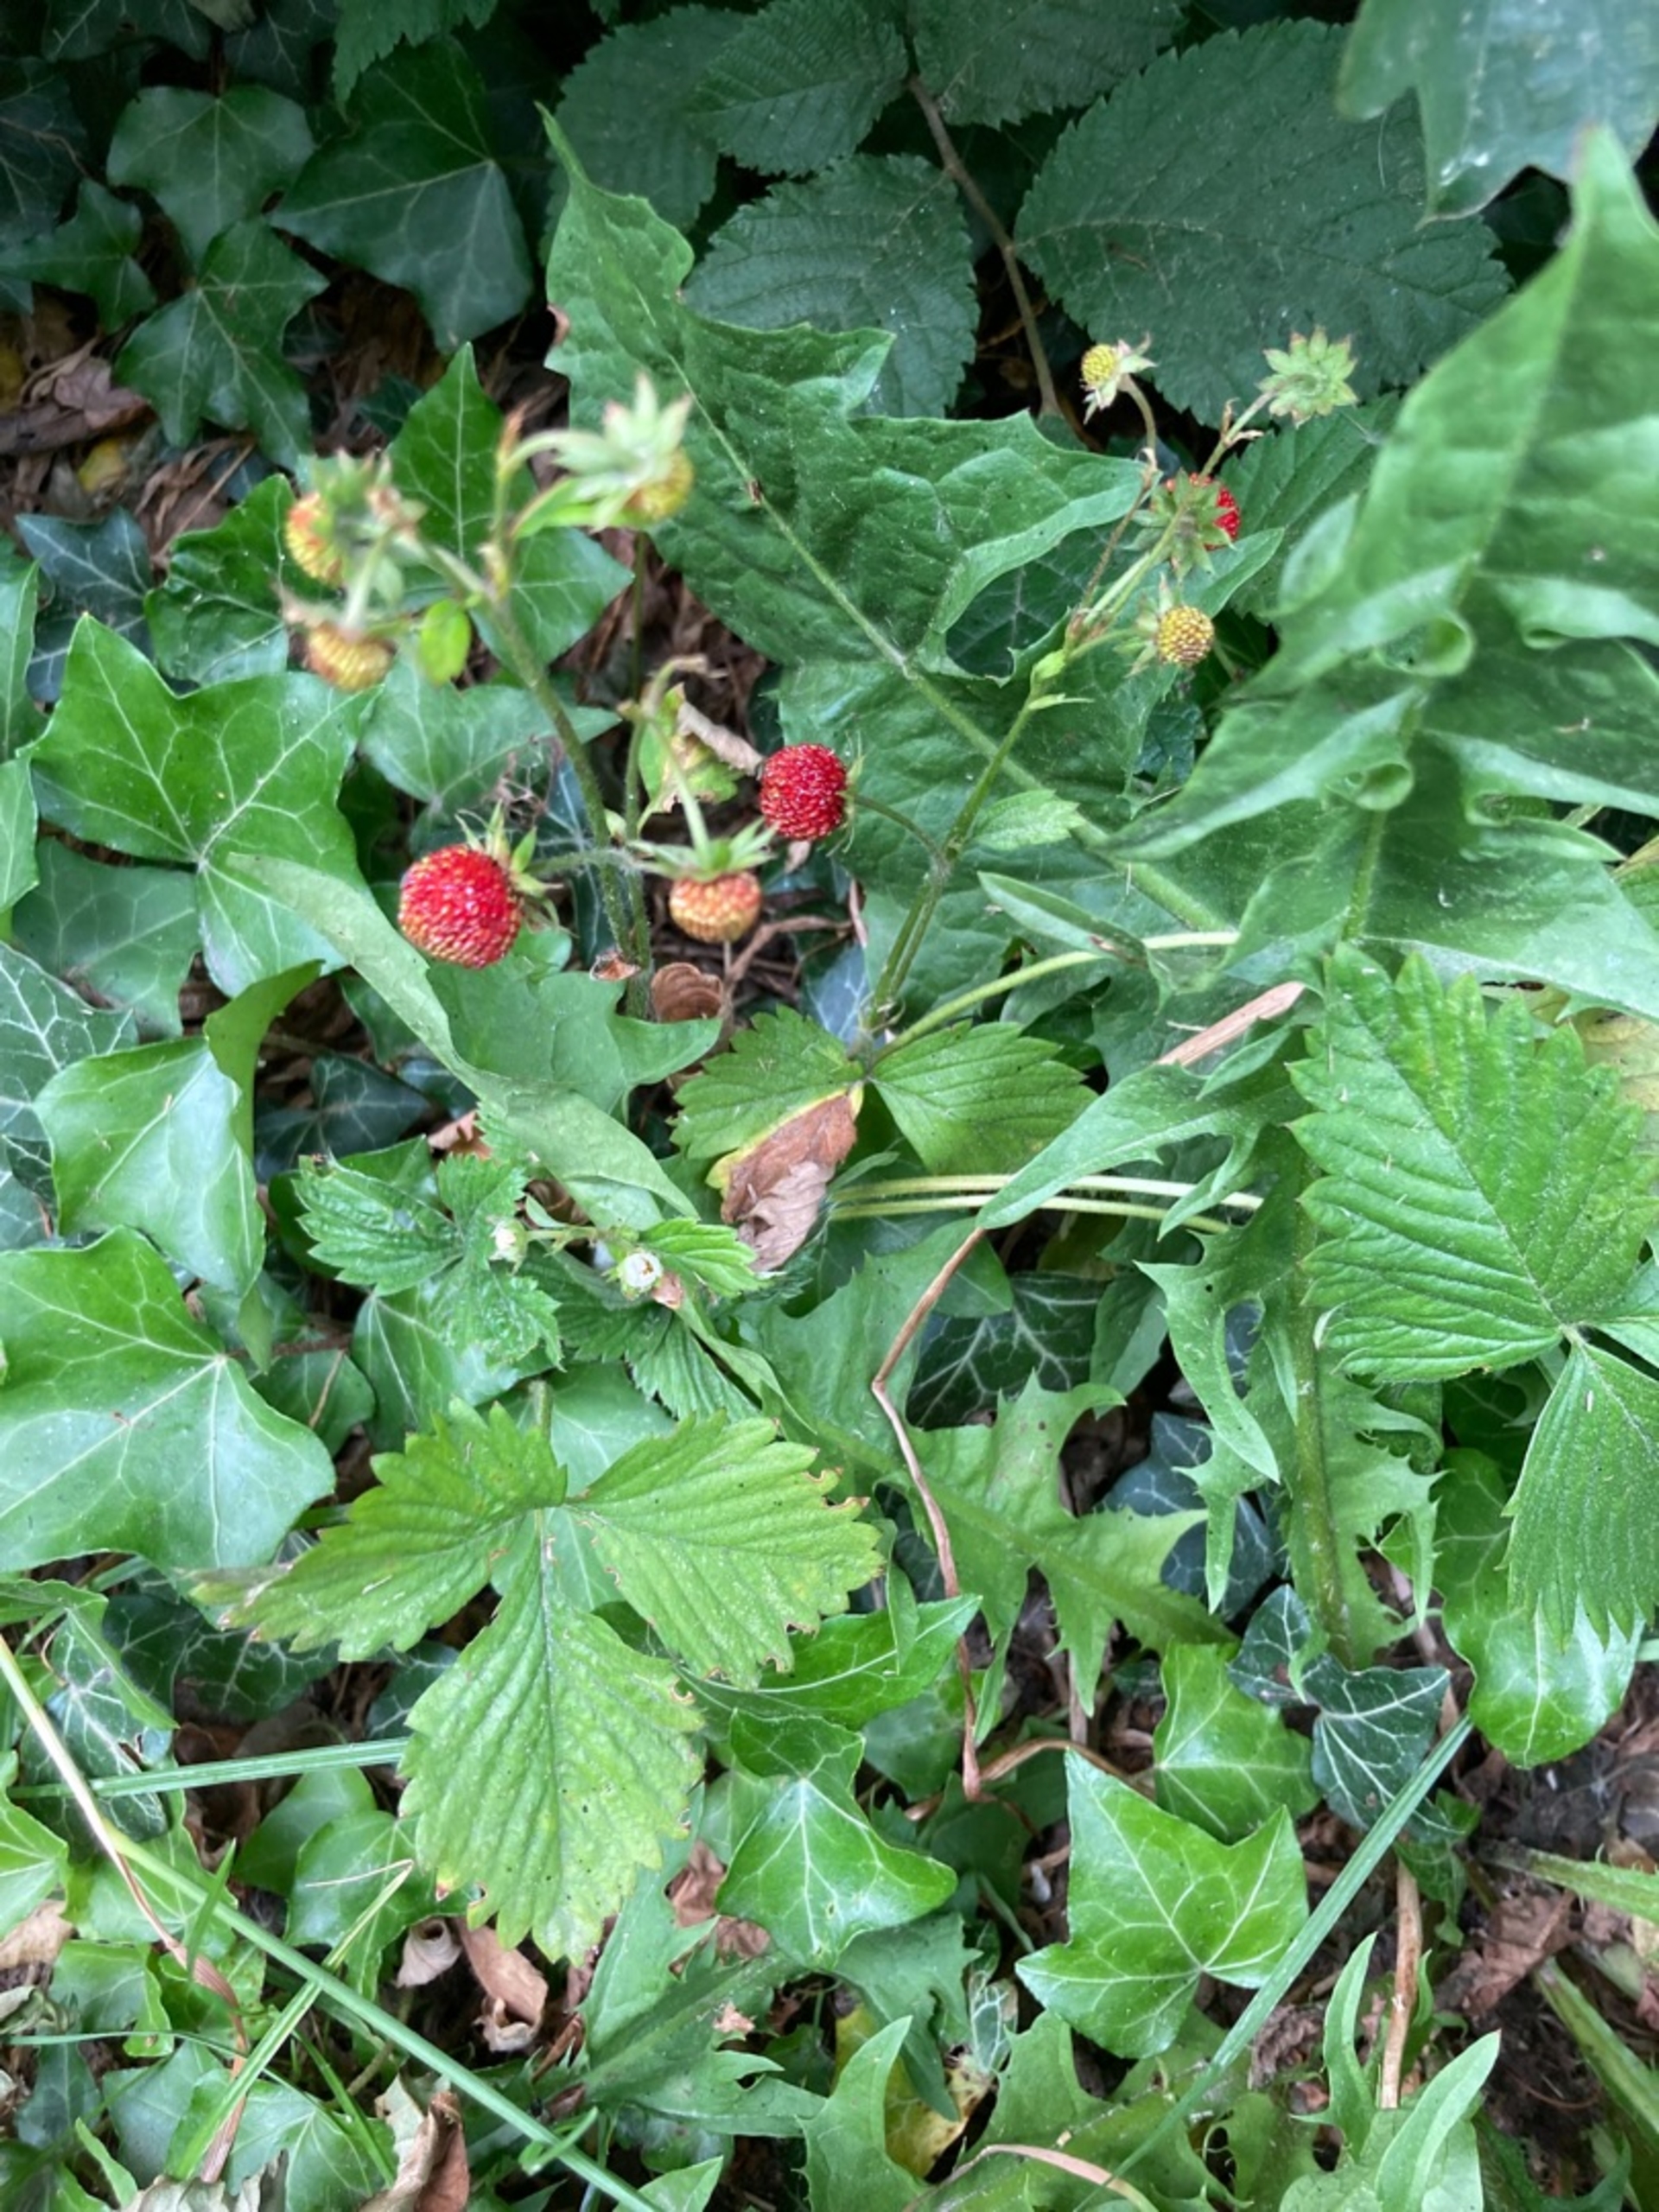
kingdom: Plantae
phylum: Tracheophyta
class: Magnoliopsida
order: Rosales
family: Rosaceae
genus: Fragaria
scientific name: Fragaria vesca
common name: Skov-jordbær
